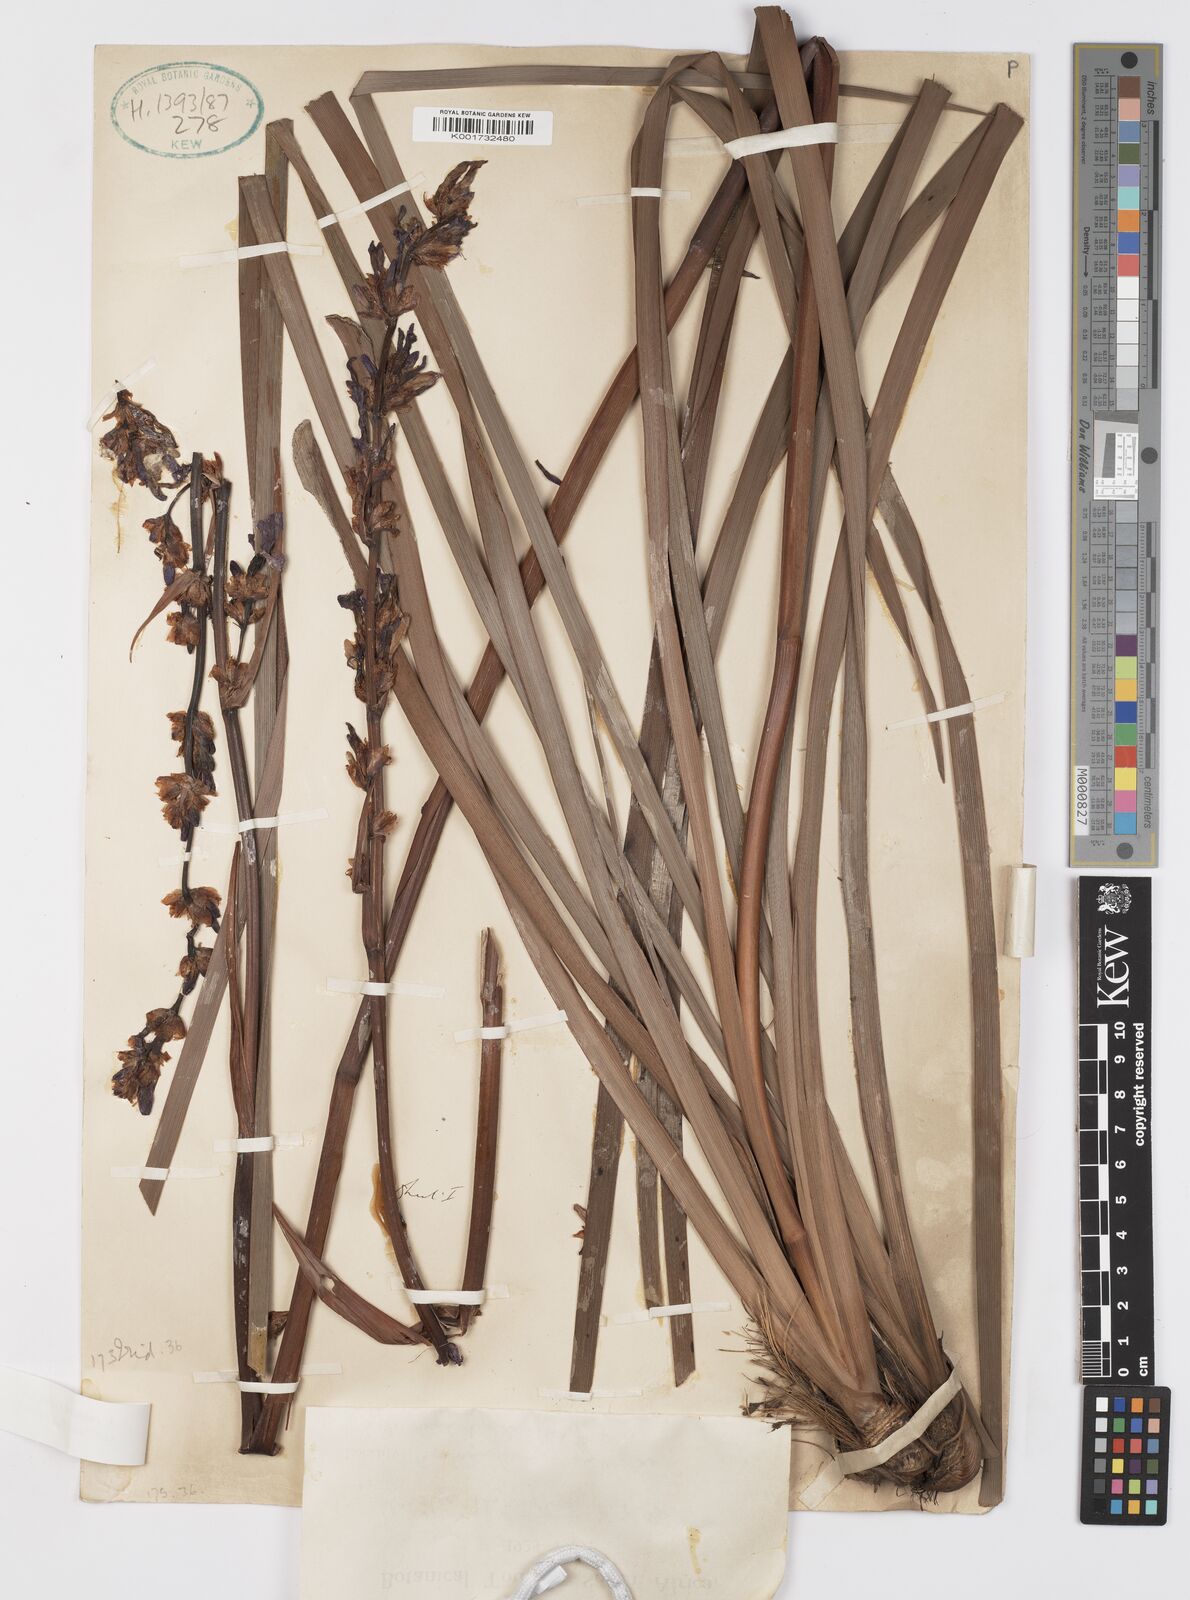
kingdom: Plantae
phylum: Tracheophyta
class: Liliopsida
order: Asparagales
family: Iridaceae
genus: Aristea
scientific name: Aristea capitata
